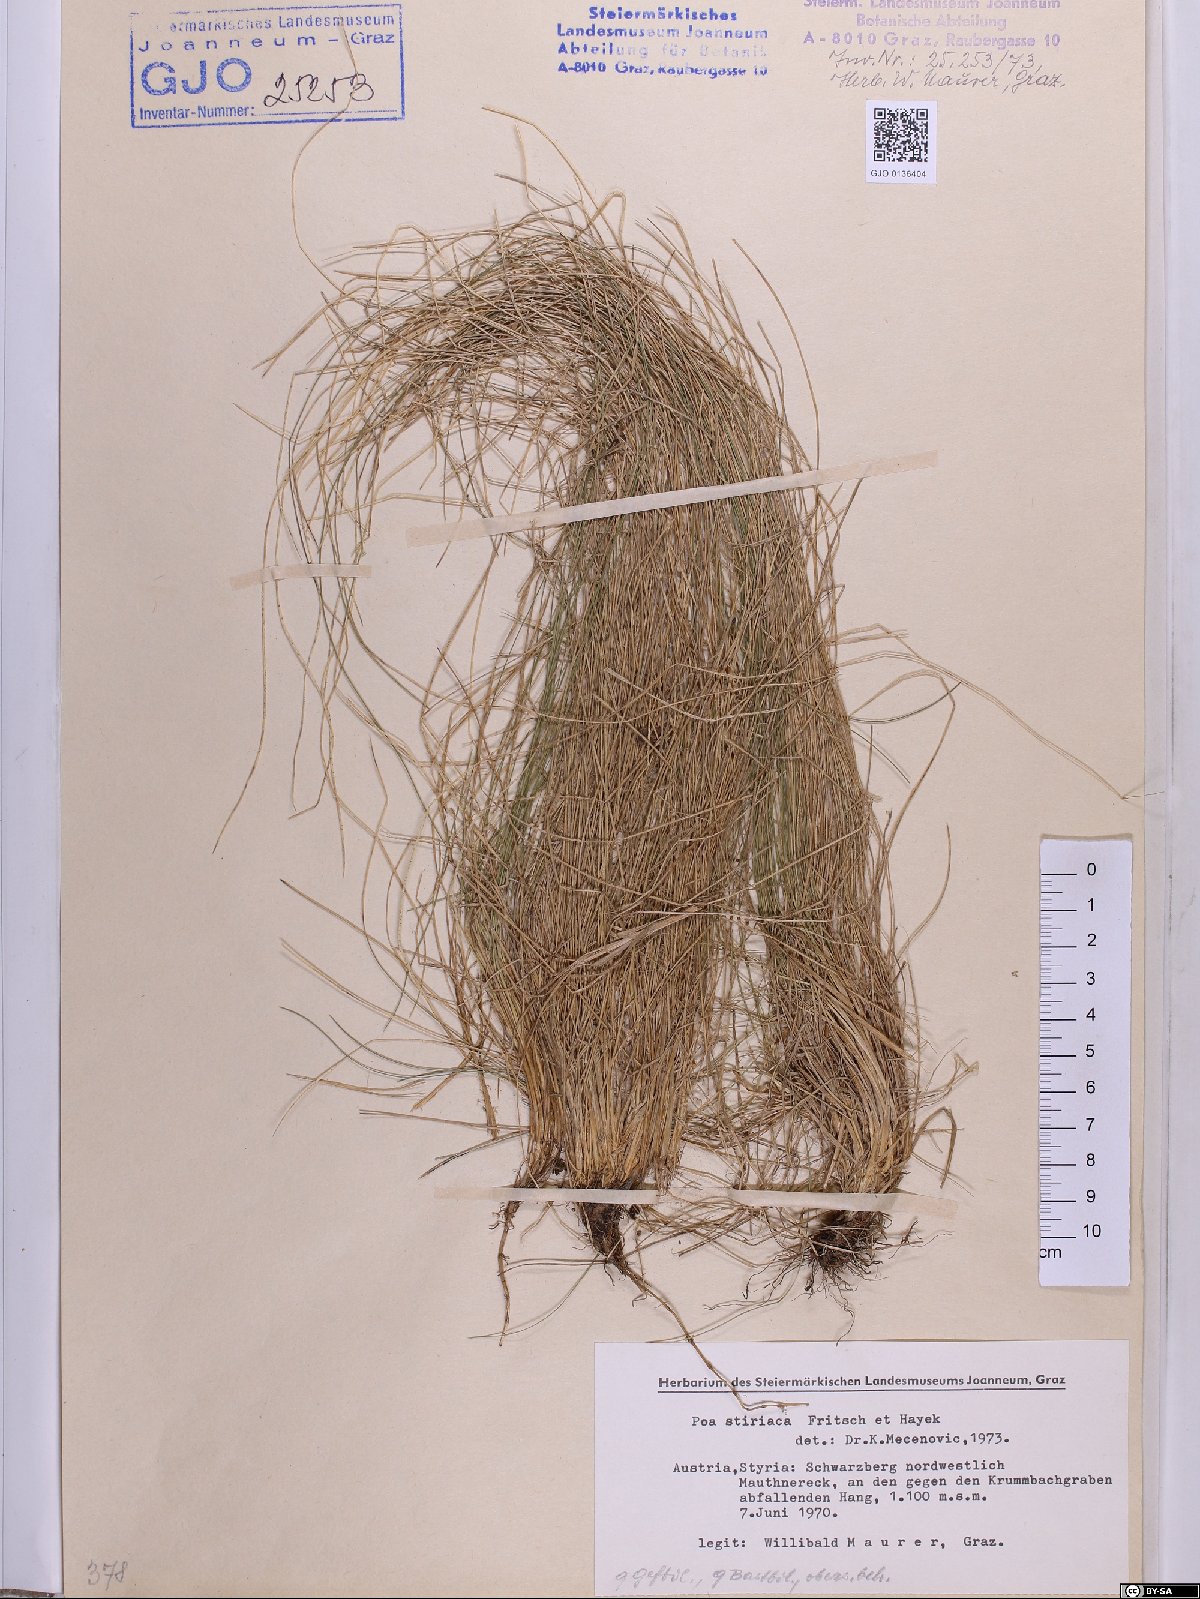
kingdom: Plantae
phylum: Tracheophyta
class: Liliopsida
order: Poales
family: Poaceae
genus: Poa
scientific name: Poa stiriaca
